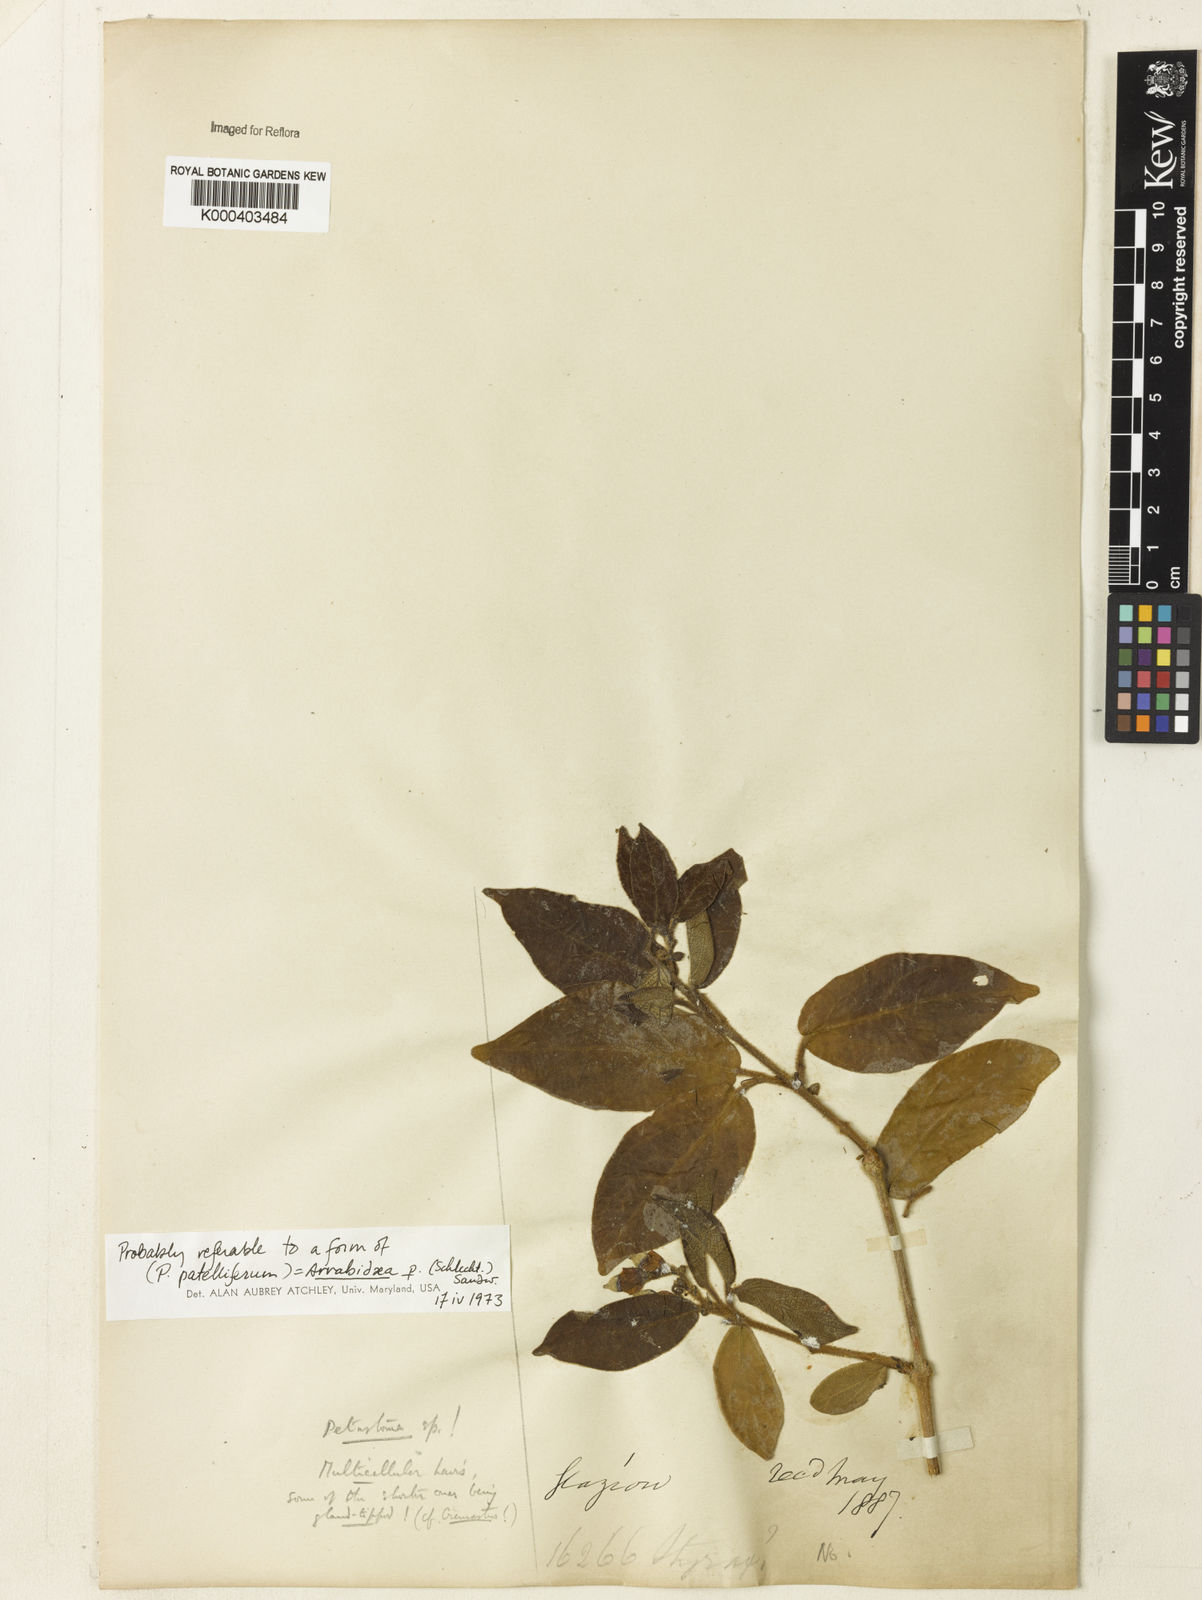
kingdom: Plantae
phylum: Tracheophyta
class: Magnoliopsida
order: Rosales
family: Rhamnaceae
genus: Arrabidaea
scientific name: Arrabidaea
